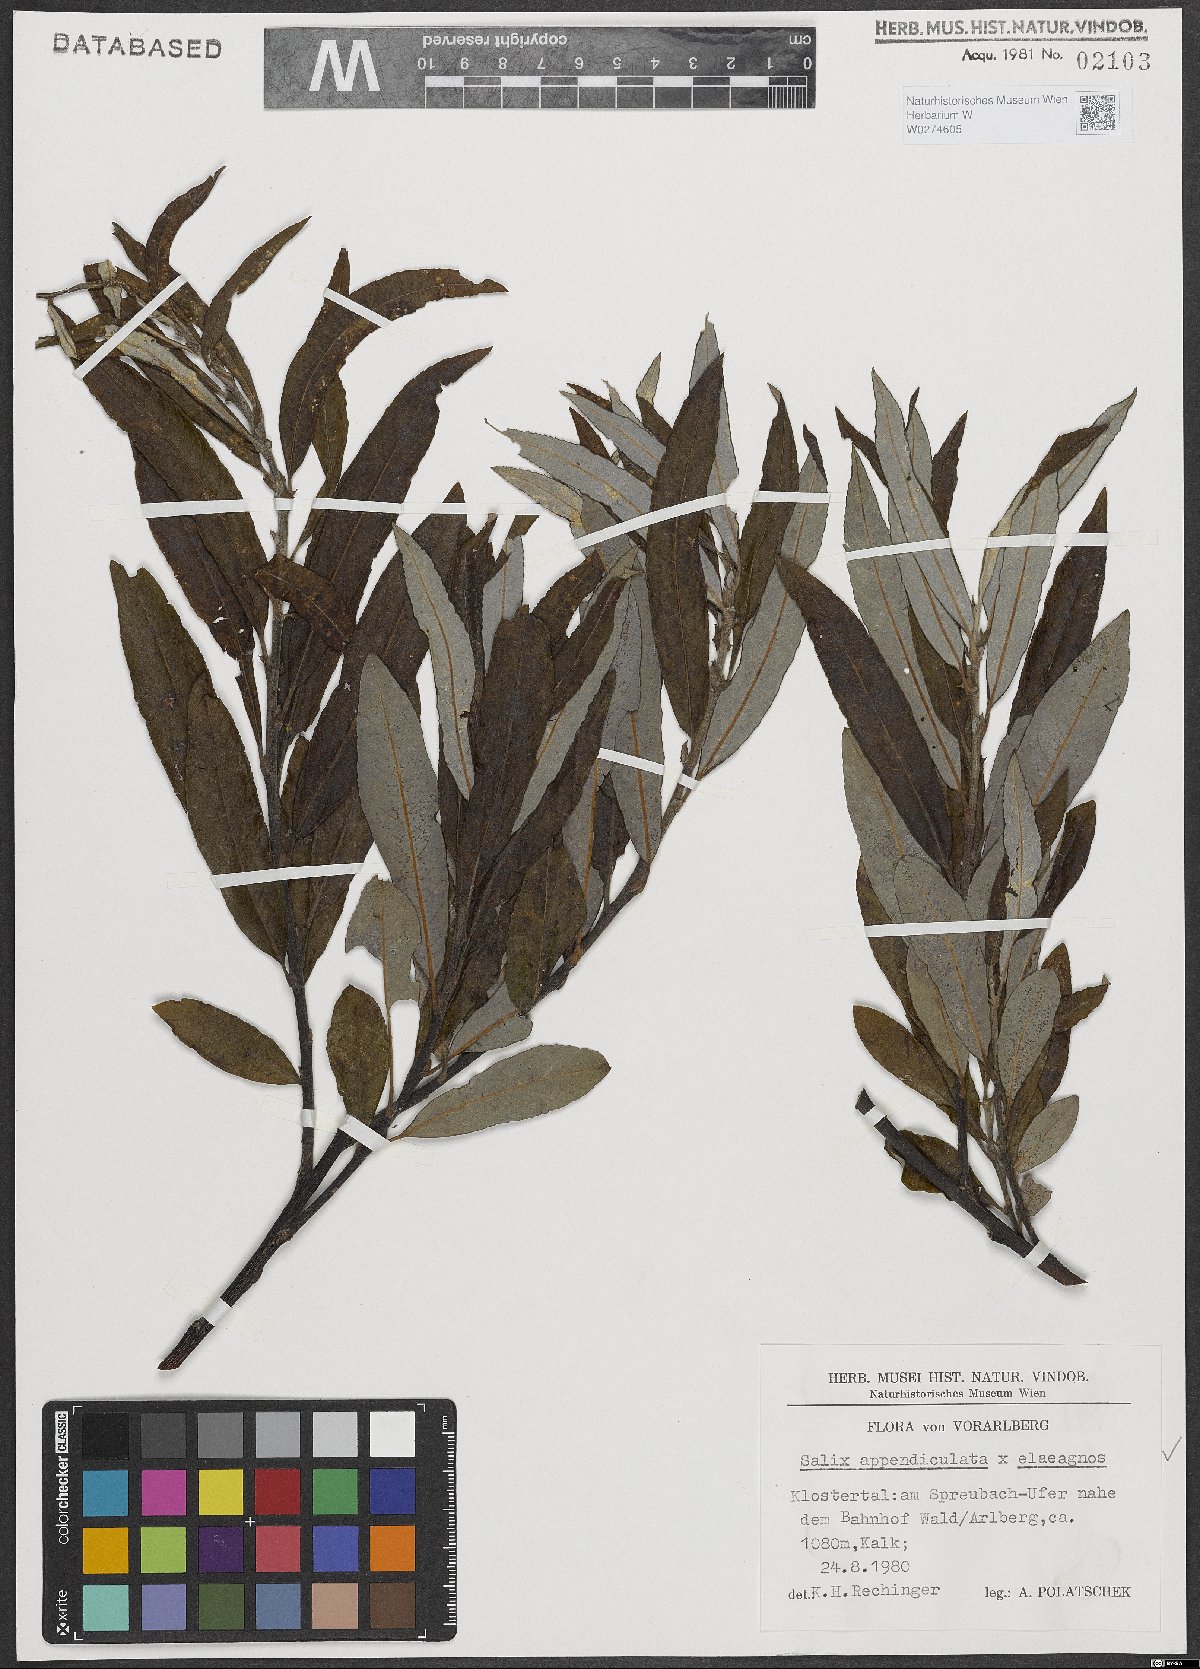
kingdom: Plantae
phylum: Tracheophyta
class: Magnoliopsida
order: Malpighiales
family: Salicaceae
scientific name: Salicaceae
